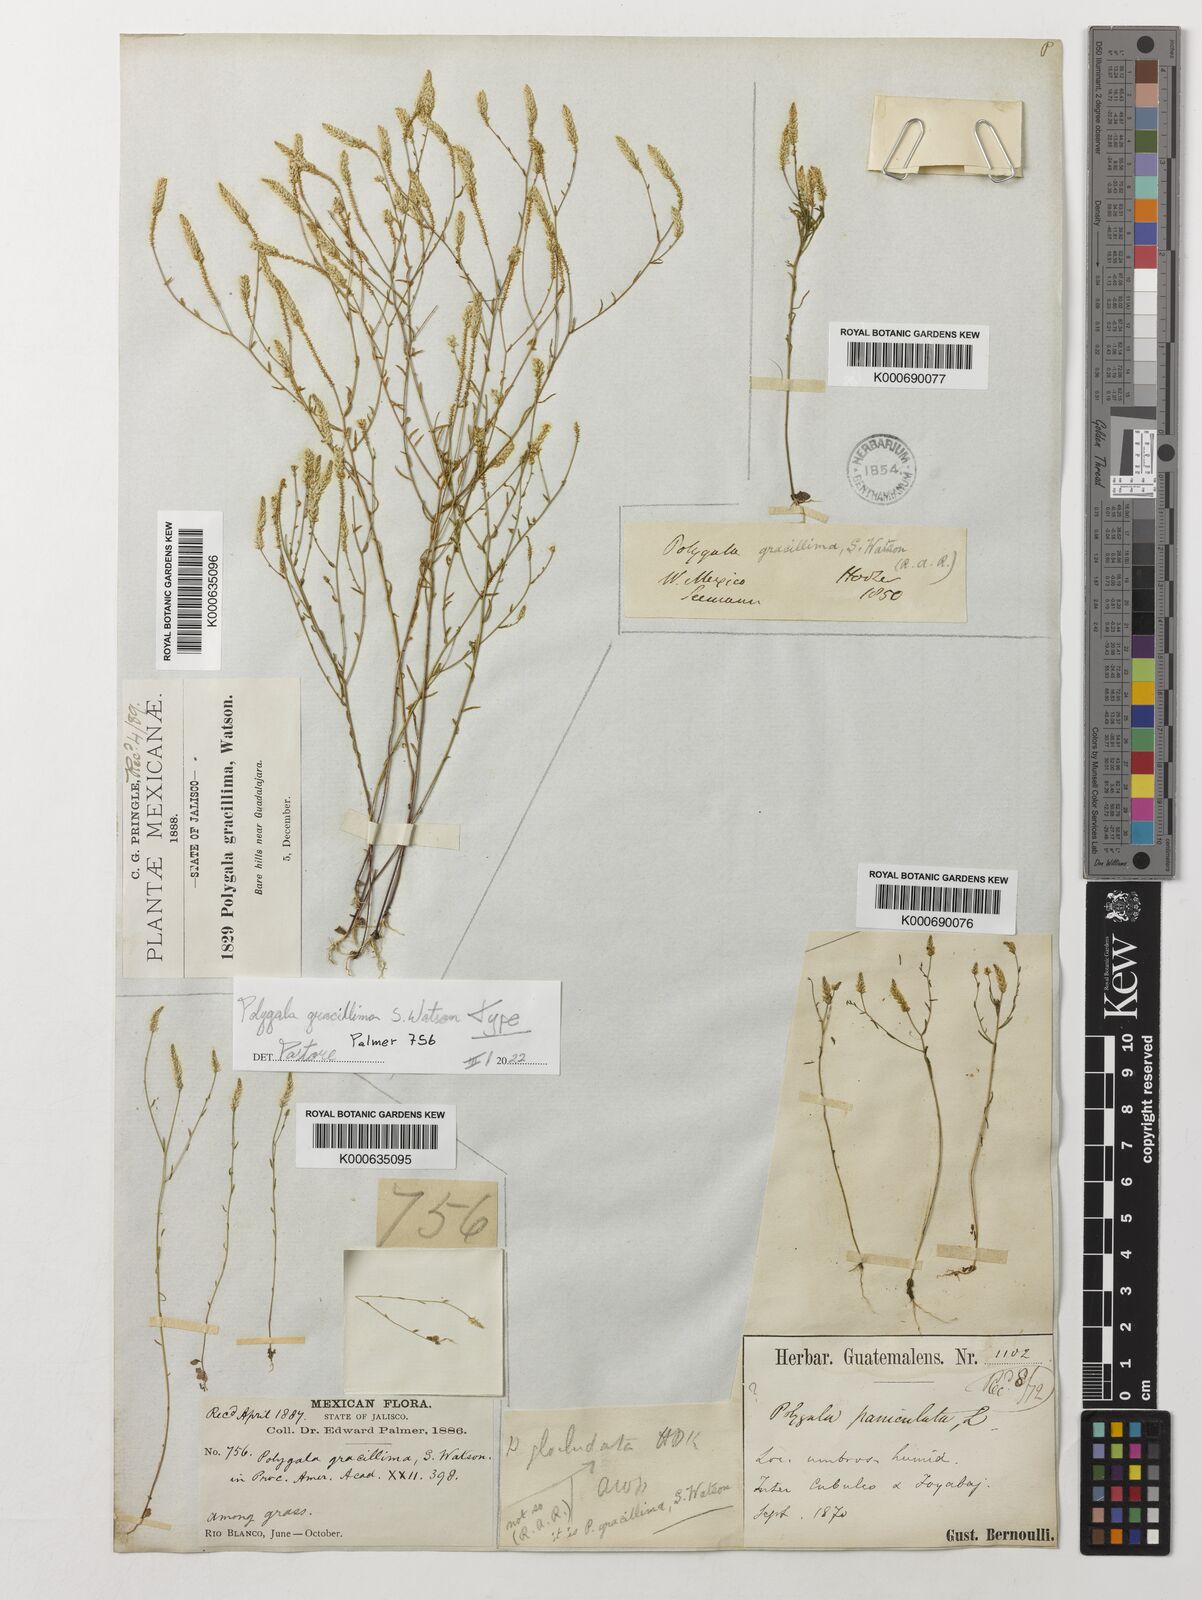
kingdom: Plantae
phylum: Tracheophyta
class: Magnoliopsida
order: Fabales
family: Polygalaceae
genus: Polygala
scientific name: Polygala gracillima
